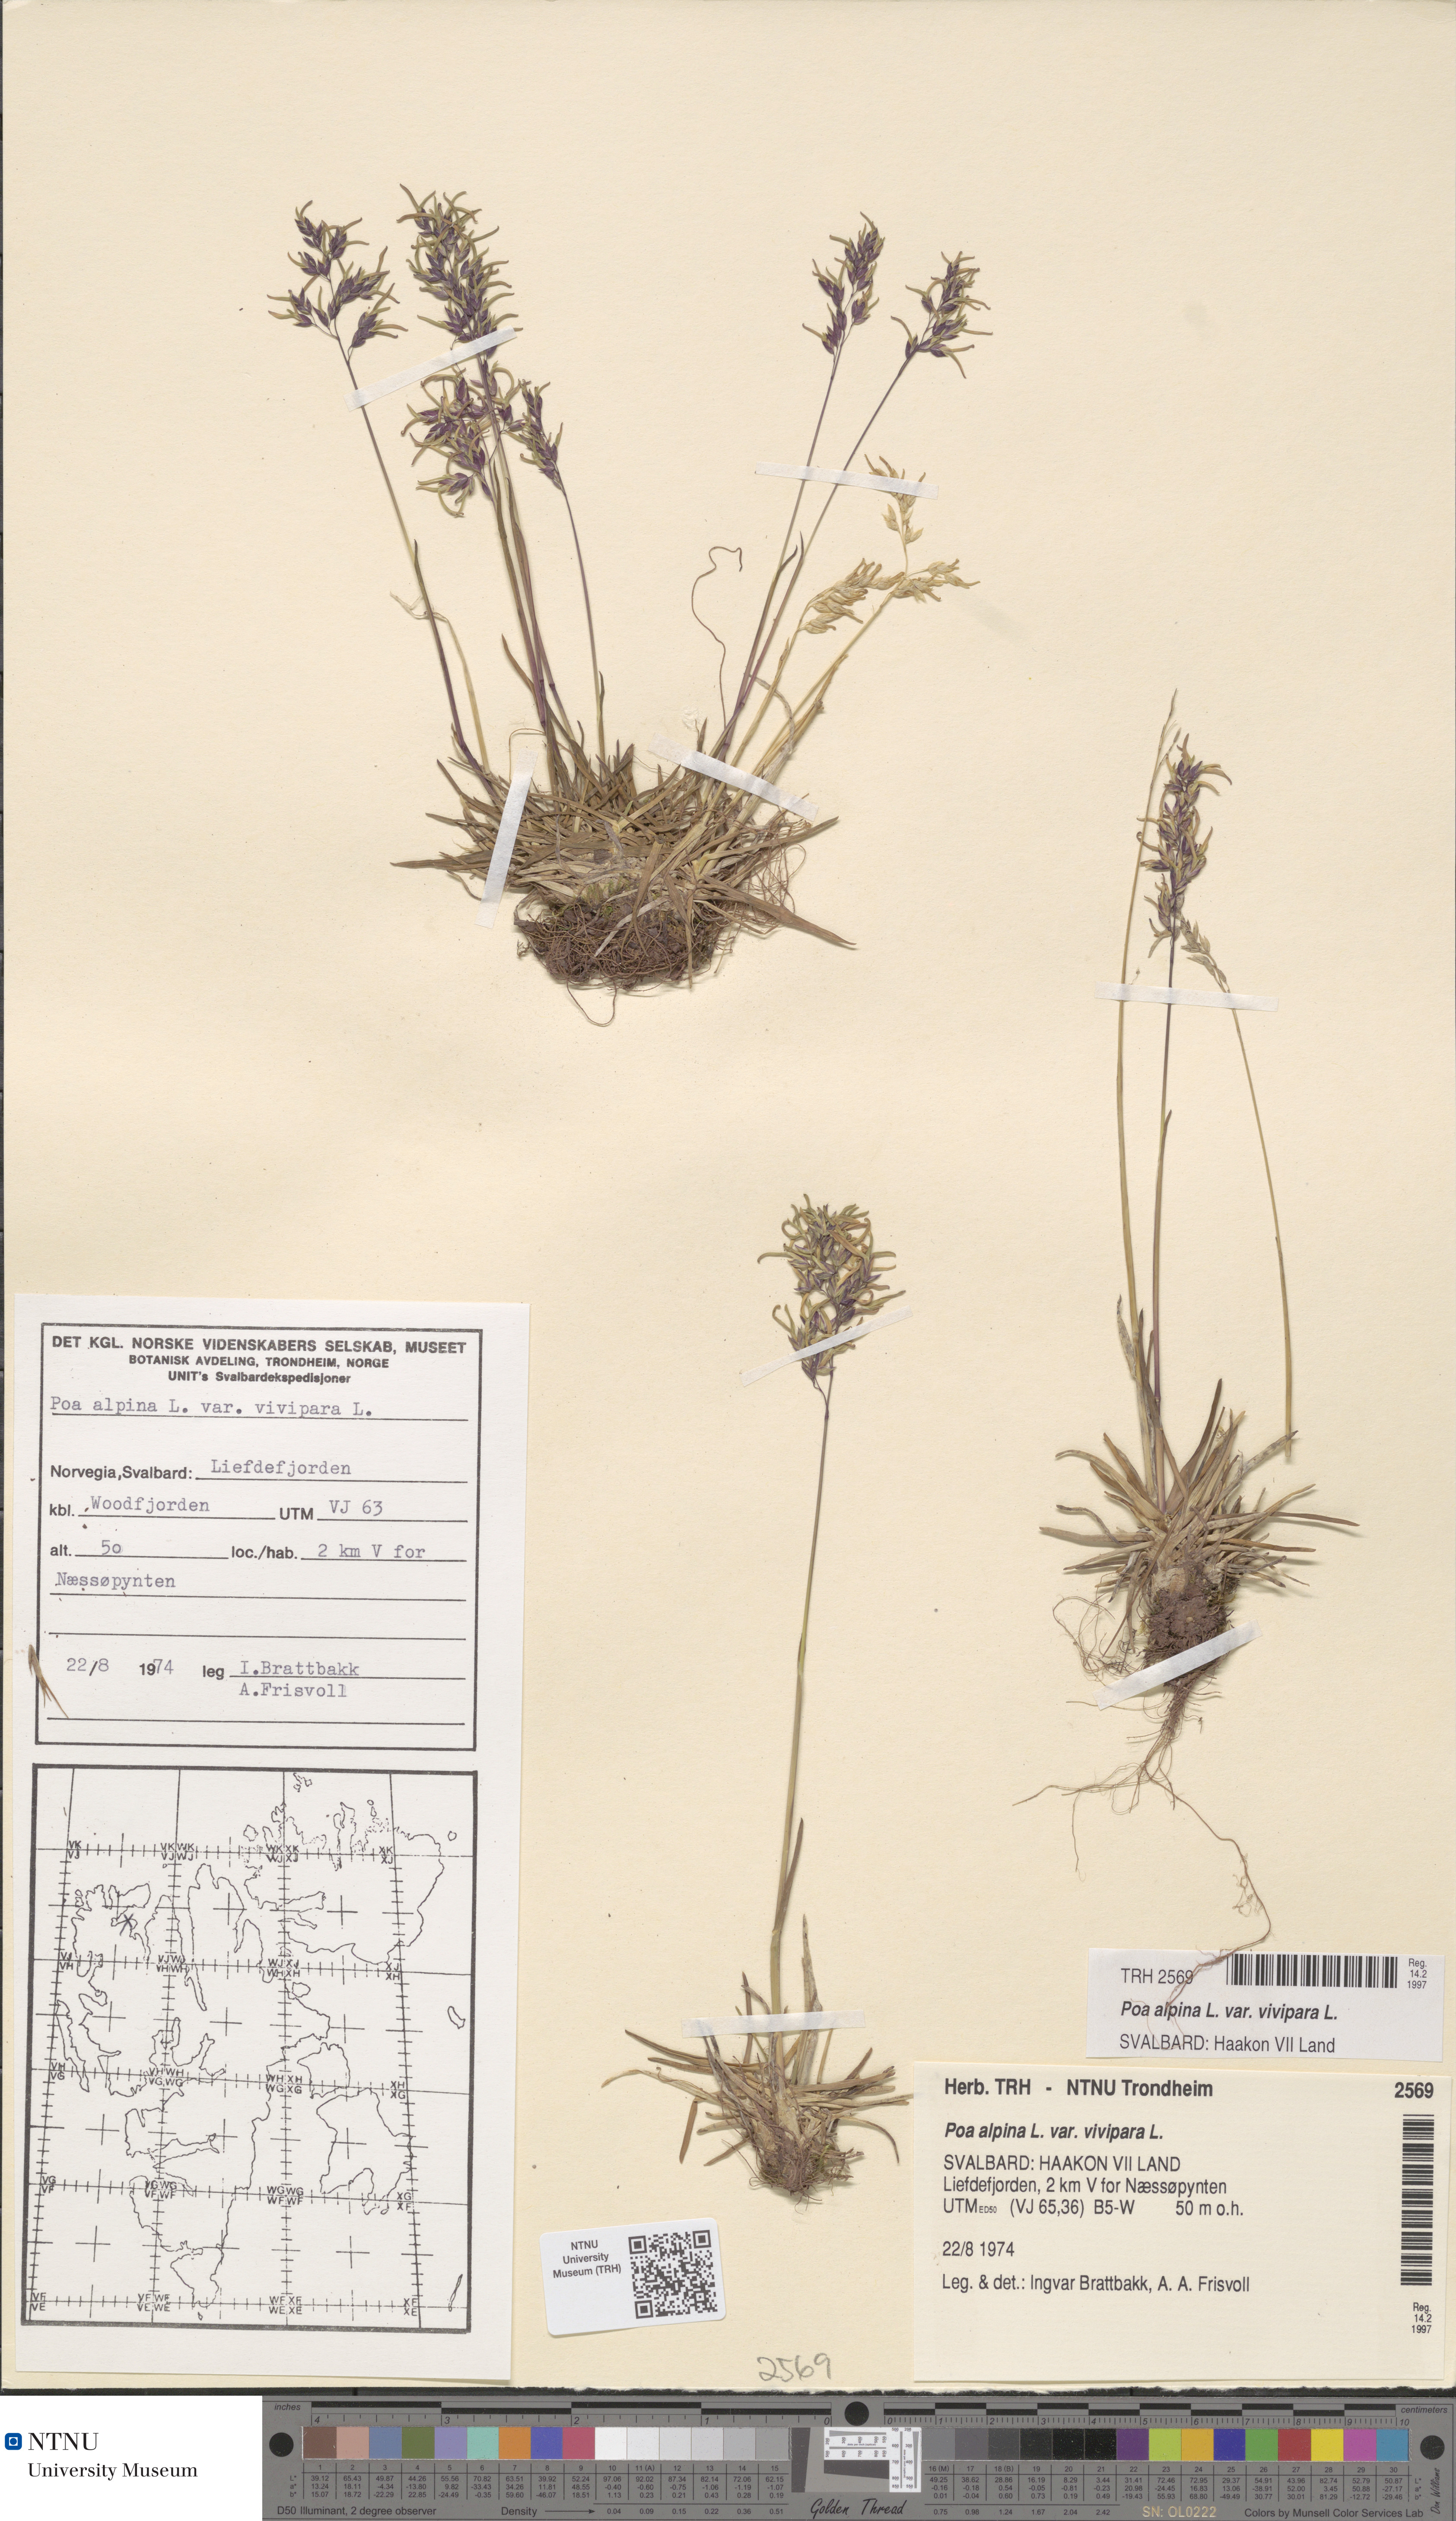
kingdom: Plantae
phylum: Tracheophyta
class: Liliopsida
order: Poales
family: Poaceae
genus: Poa
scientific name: Poa alpina
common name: Alpine bluegrass
